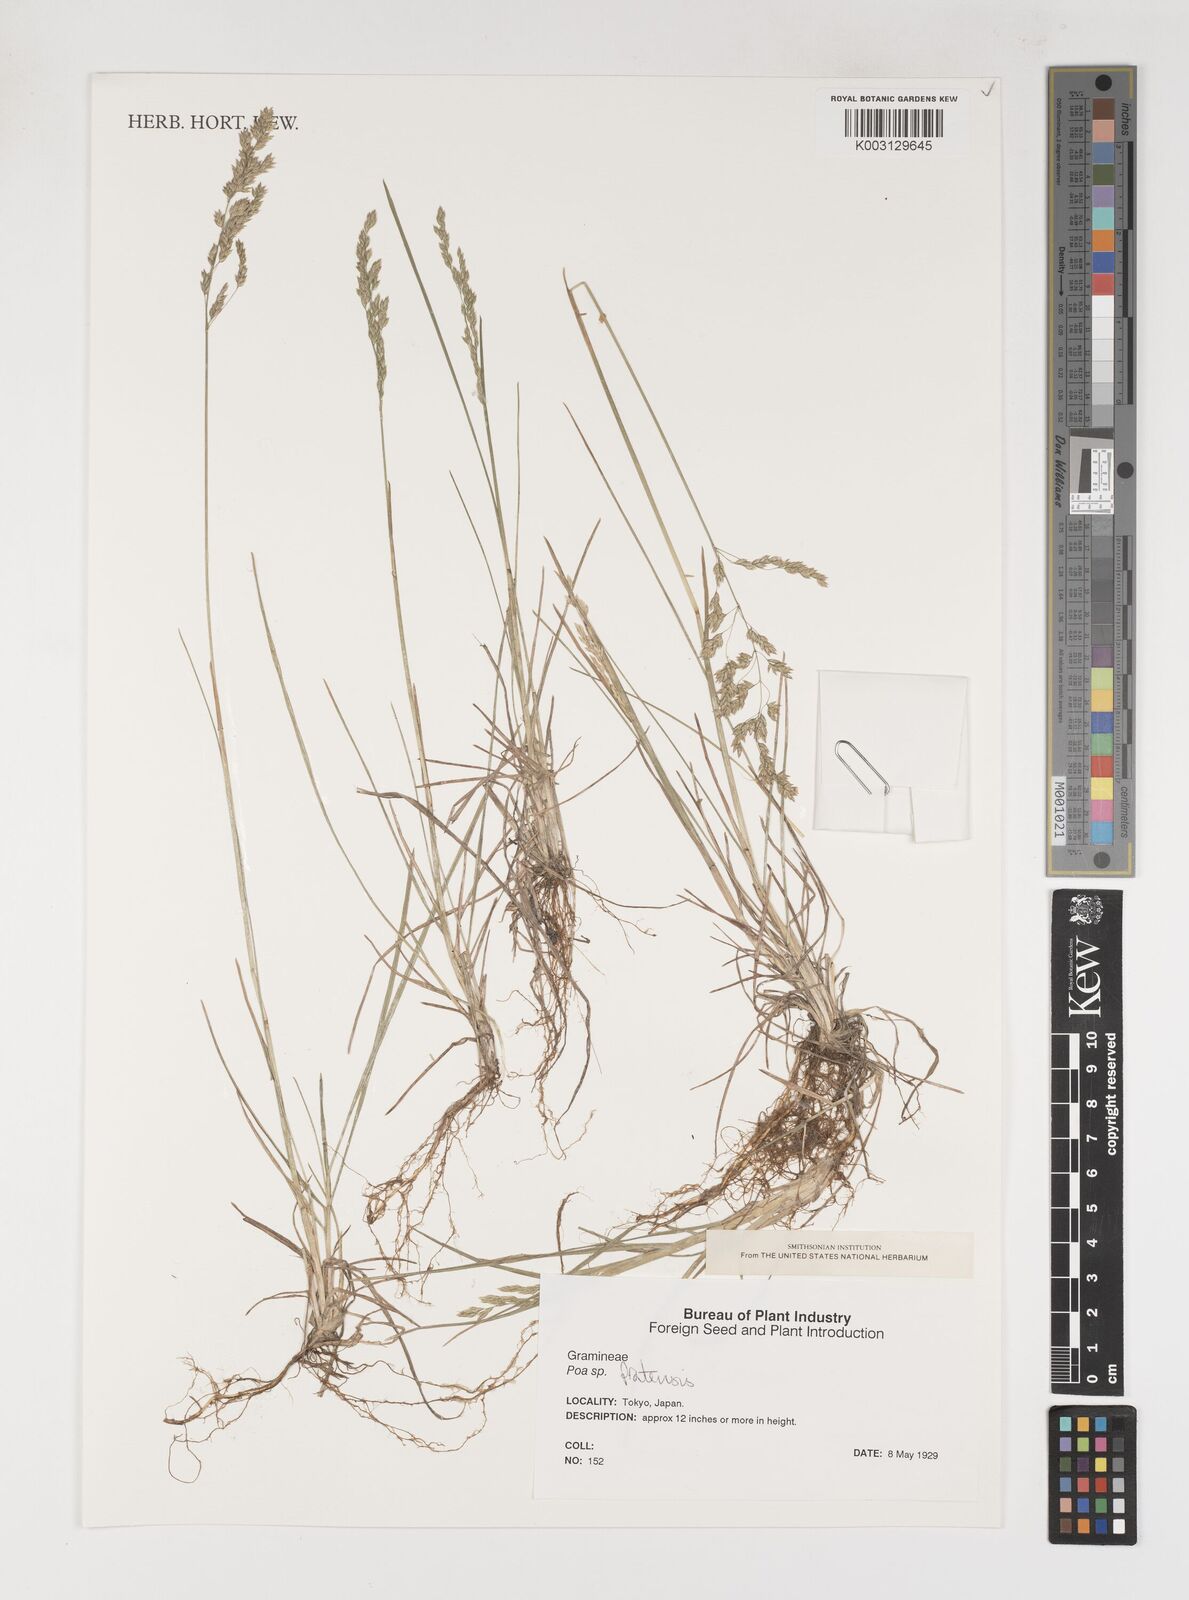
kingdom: Plantae
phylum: Tracheophyta
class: Liliopsida
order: Poales
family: Poaceae
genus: Poa
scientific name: Poa angustifolia
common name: Narrow-leaved meadow-grass
